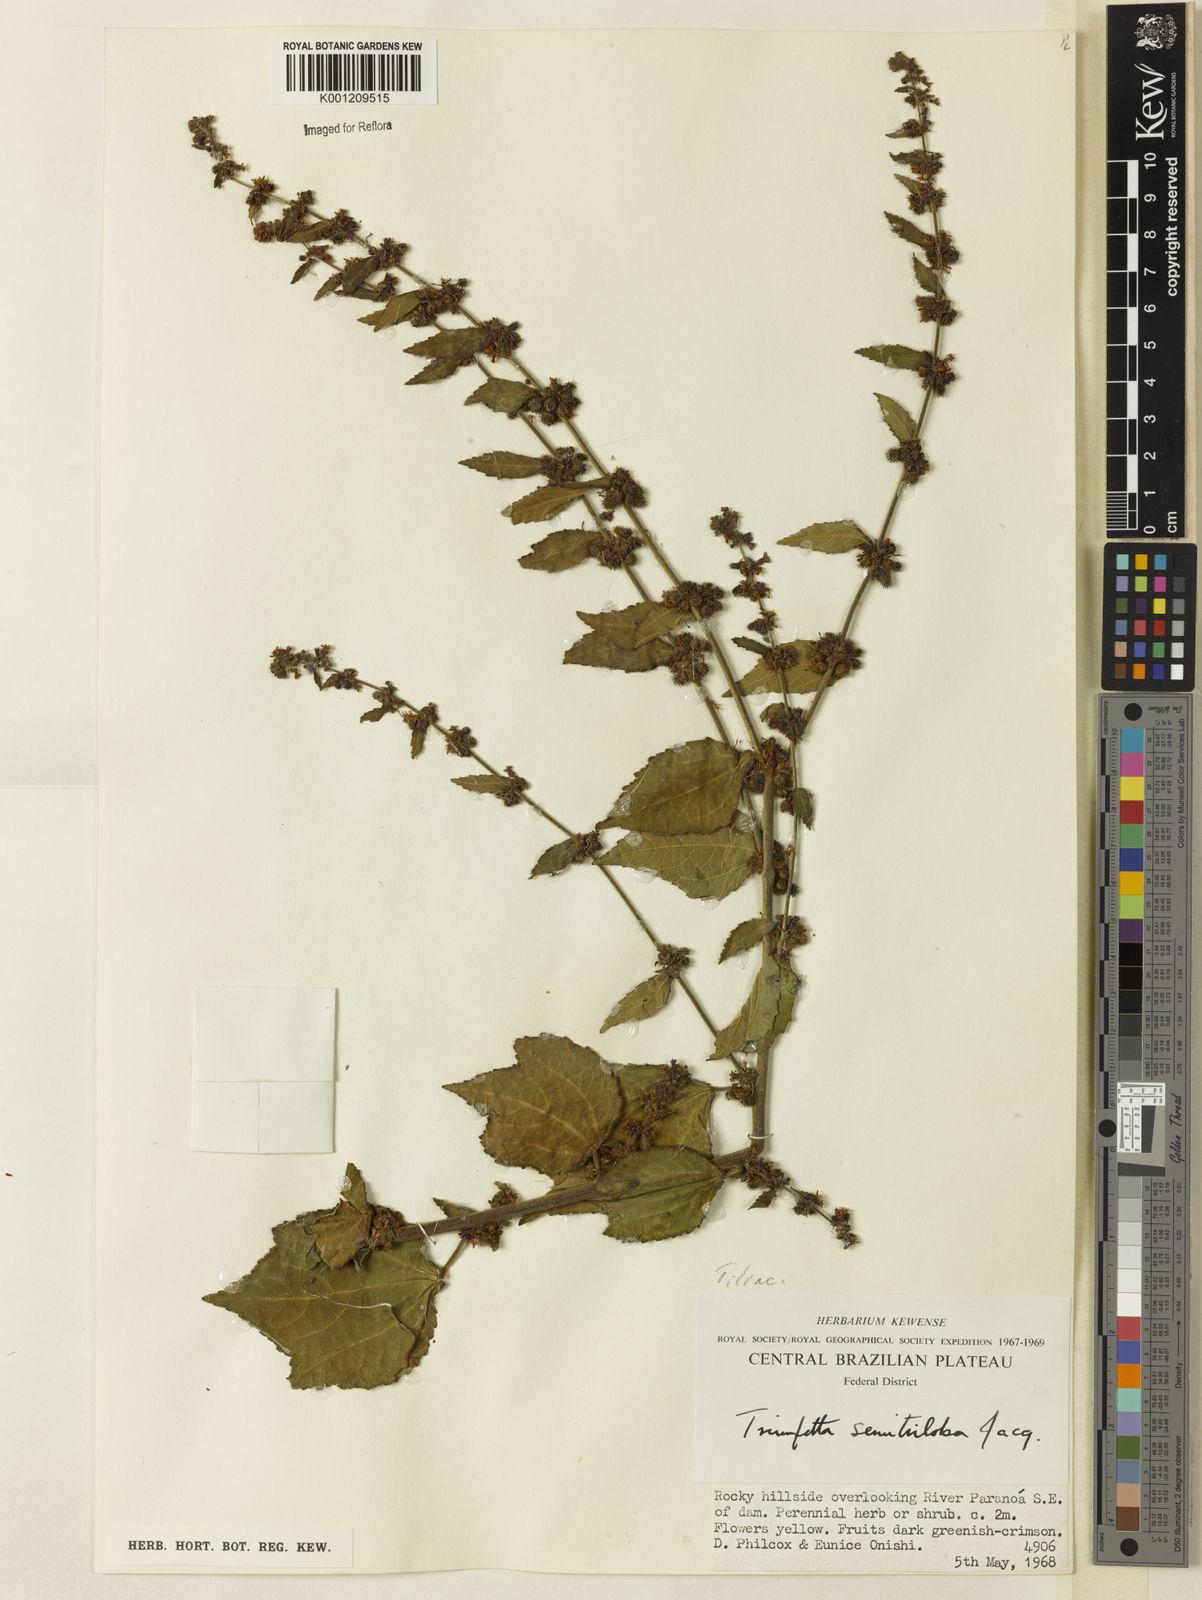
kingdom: Plantae
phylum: Tracheophyta
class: Magnoliopsida
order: Malvales
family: Malvaceae
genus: Triumfetta
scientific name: Triumfetta semitriloba
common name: Sacramento burbark
